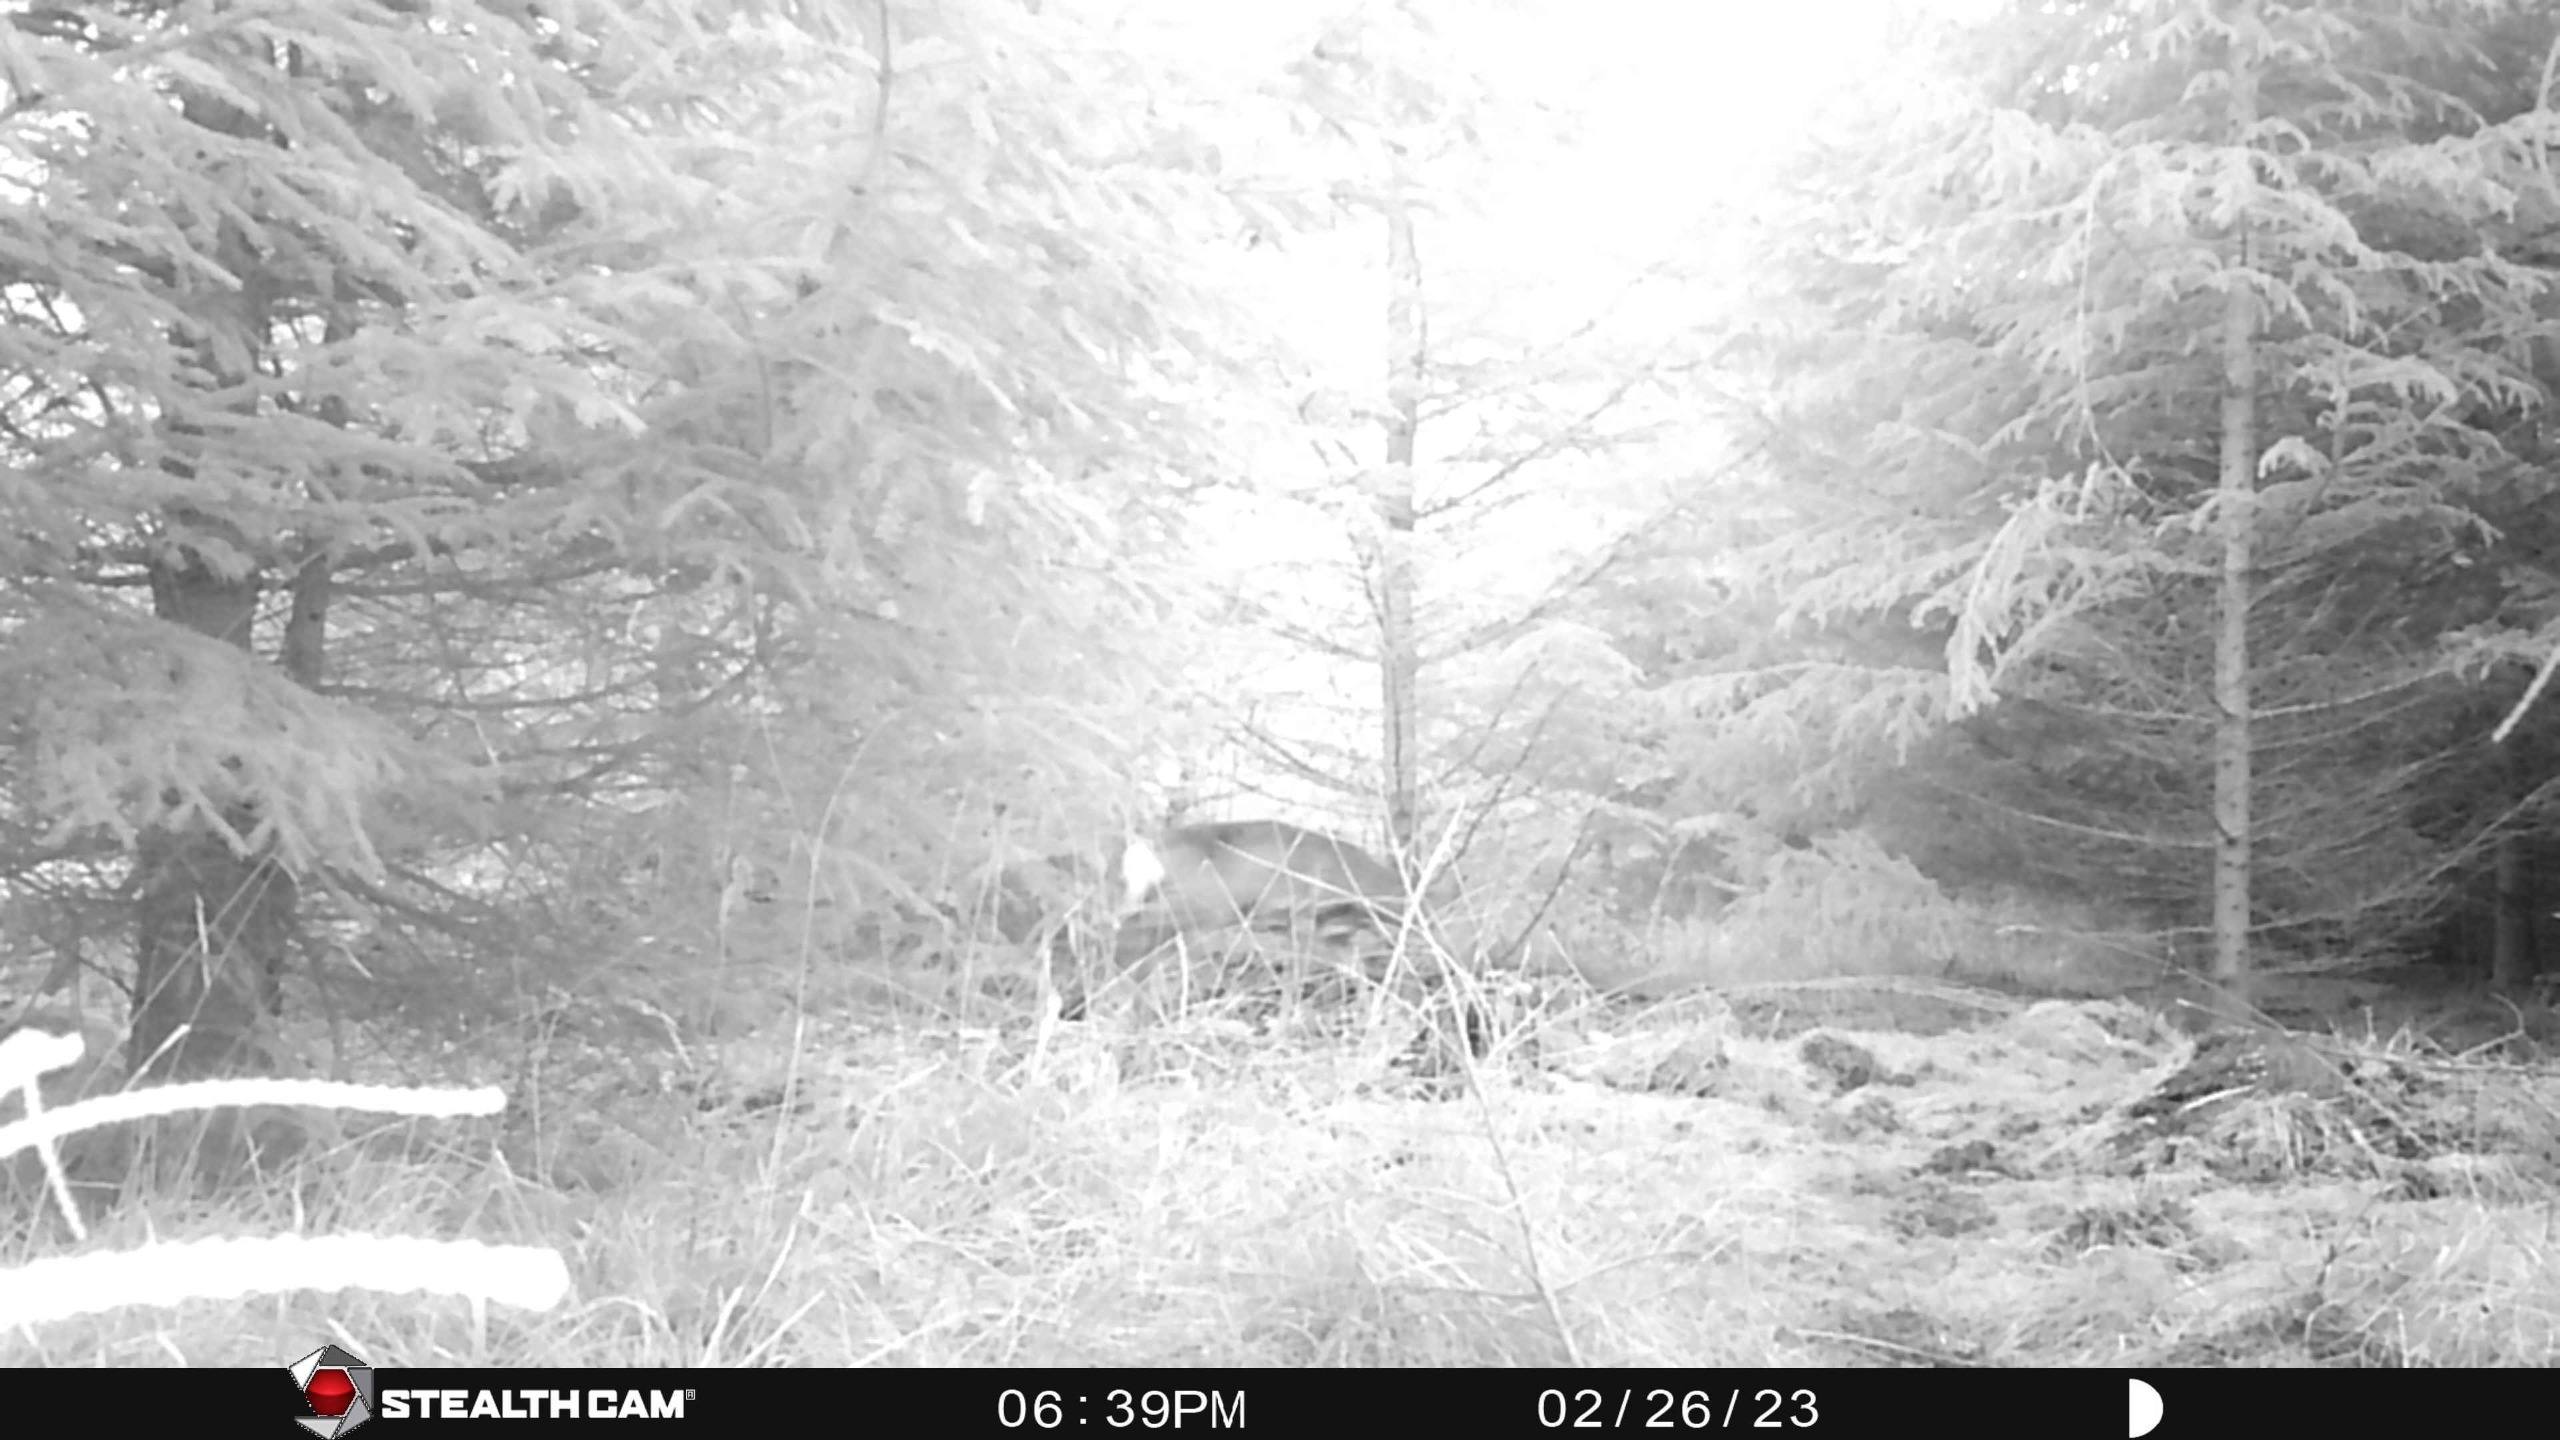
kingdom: Animalia
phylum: Chordata
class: Mammalia
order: Artiodactyla
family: Cervidae
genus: Capreolus
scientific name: Capreolus capreolus
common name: Rådyr
